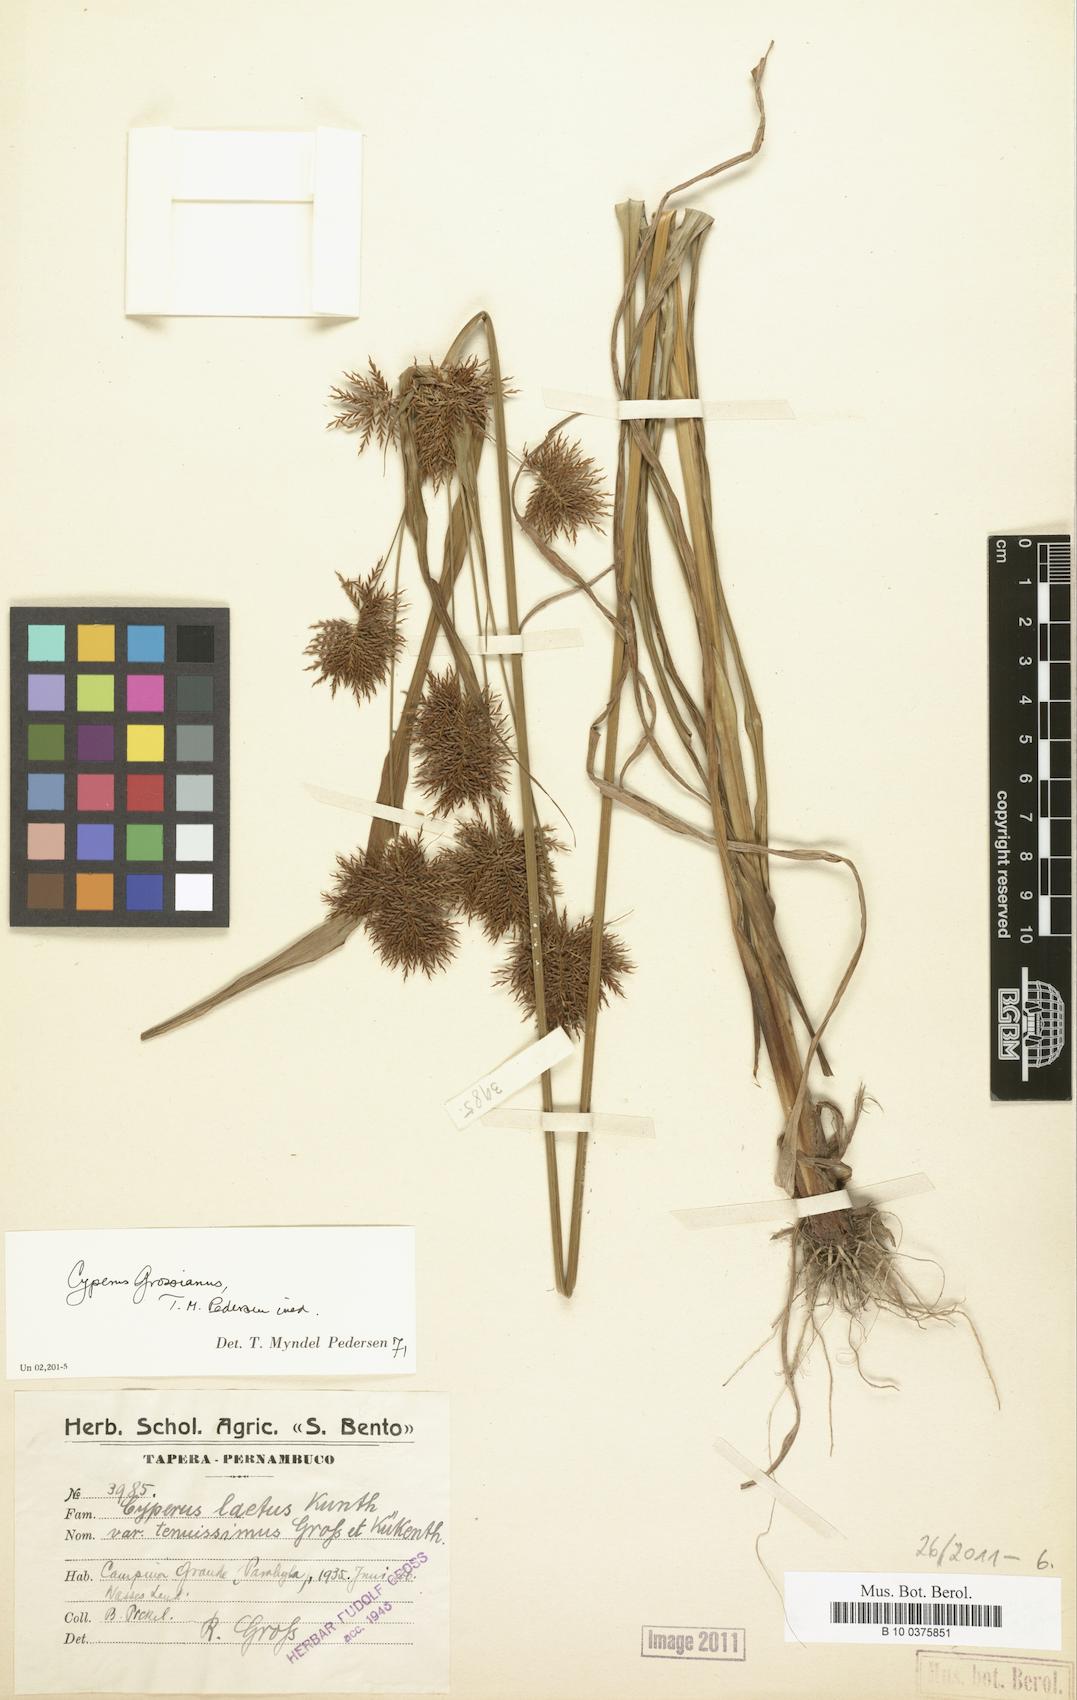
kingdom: Plantae
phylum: Tracheophyta
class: Liliopsida
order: Poales
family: Cyperaceae
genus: Cyperus
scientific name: Cyperus grossianus
